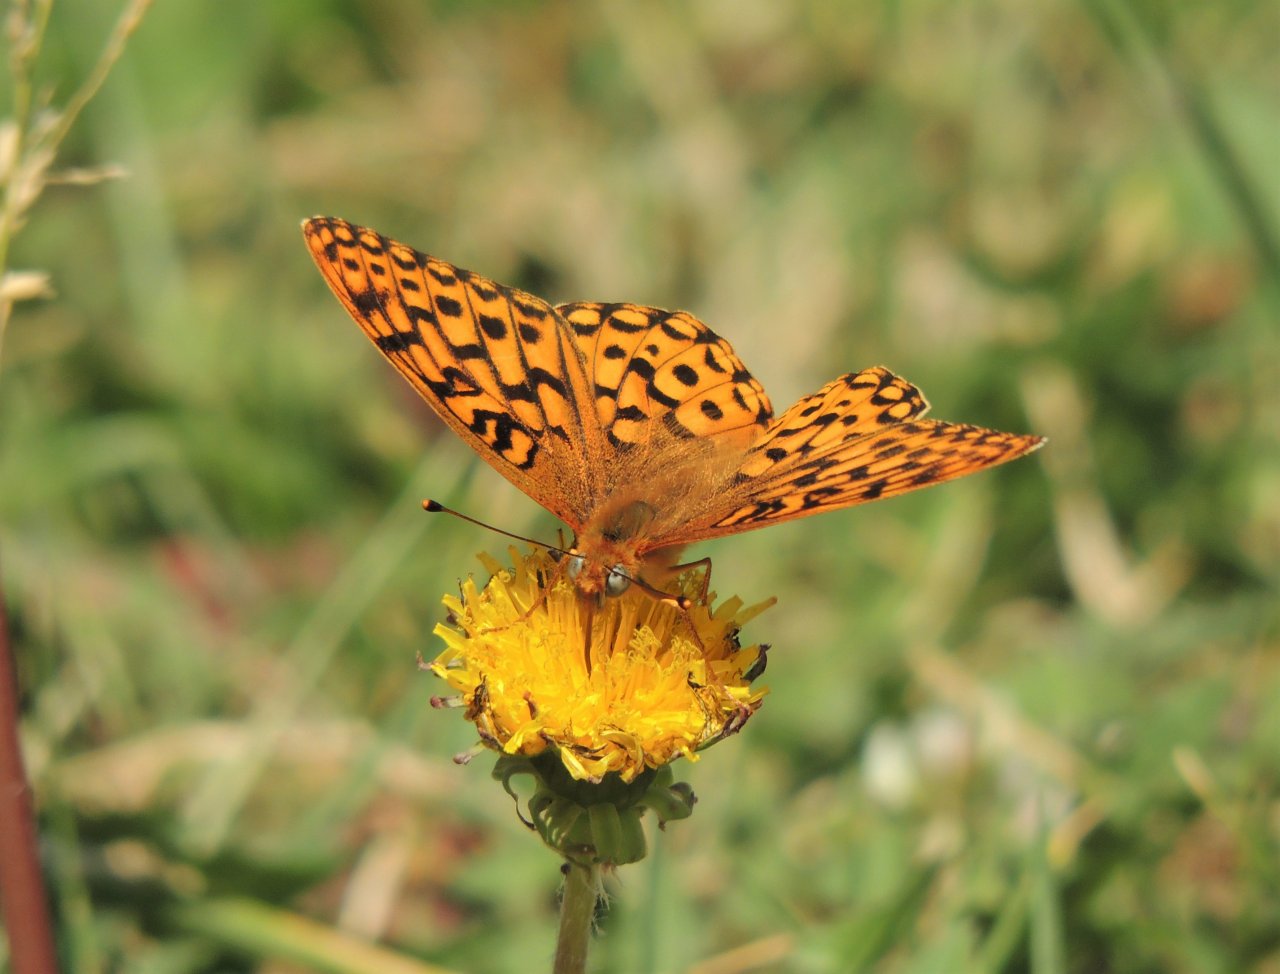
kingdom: Animalia
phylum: Arthropoda
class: Insecta
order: Lepidoptera
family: Nymphalidae
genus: Speyeria
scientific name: Speyeria coronis
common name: Coronis Fritillary
